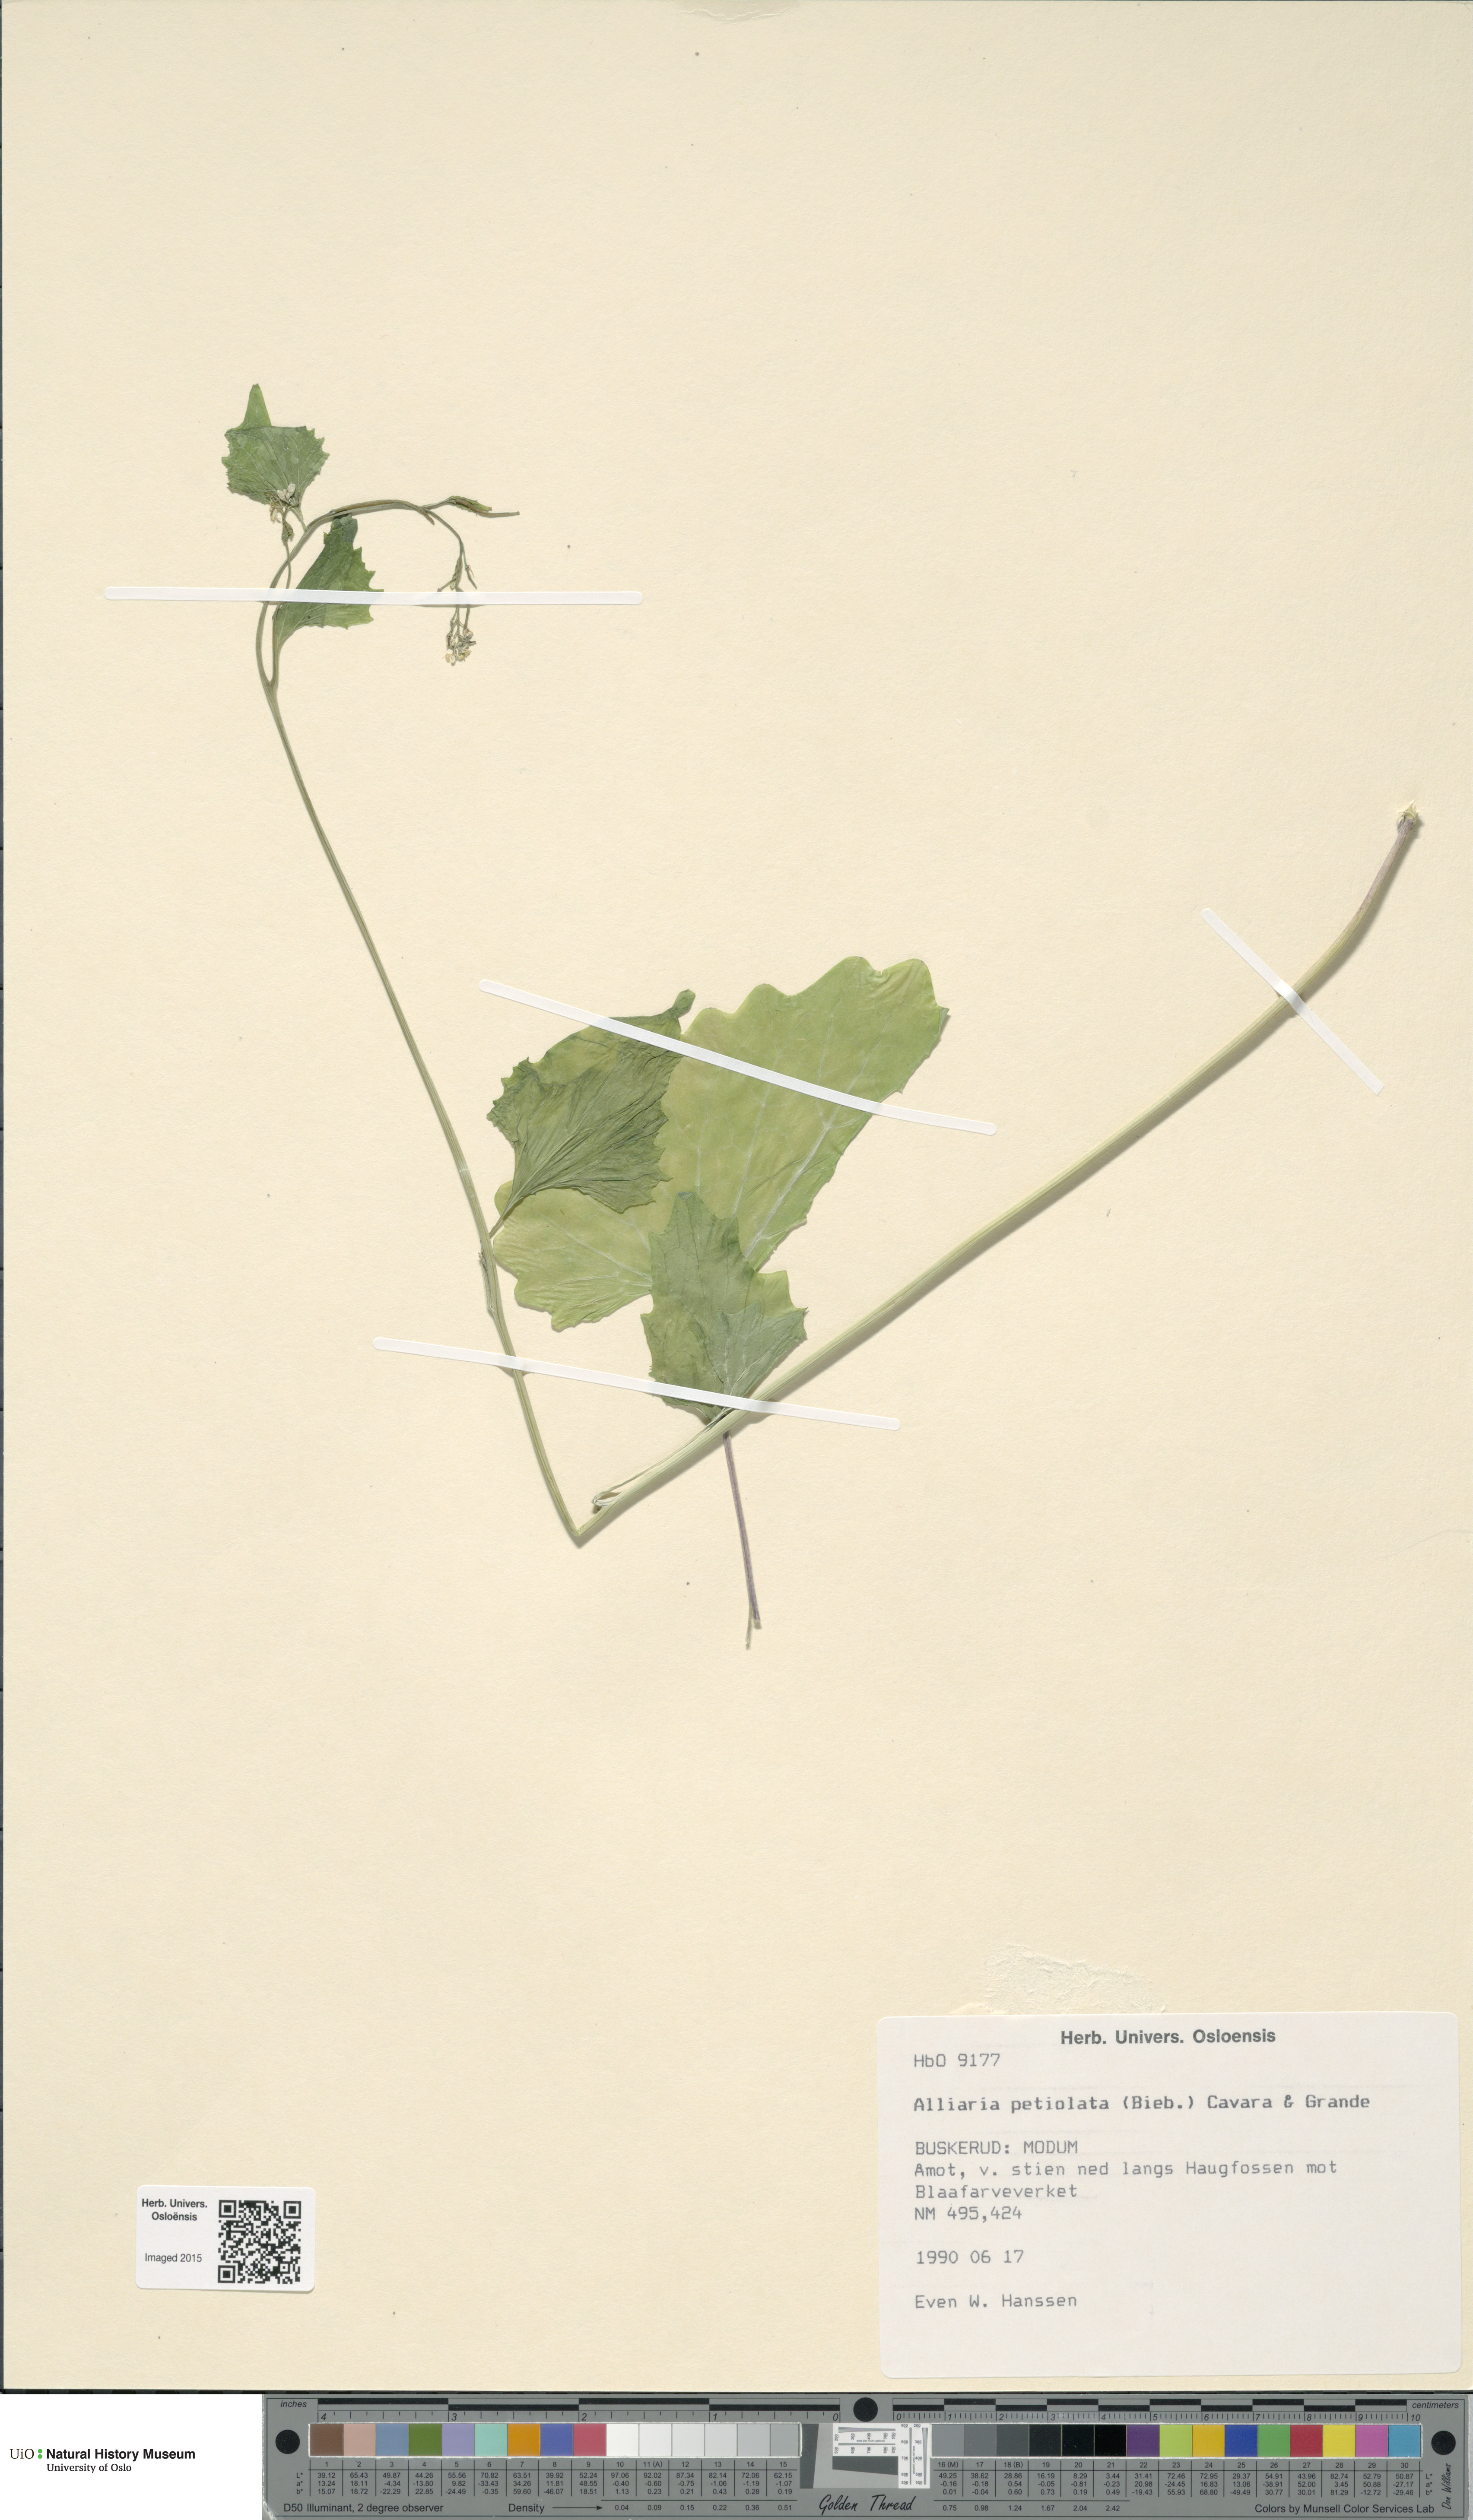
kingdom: Plantae
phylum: Tracheophyta
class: Magnoliopsida
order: Brassicales
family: Brassicaceae
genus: Alliaria
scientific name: Alliaria petiolata
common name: Garlic mustard
